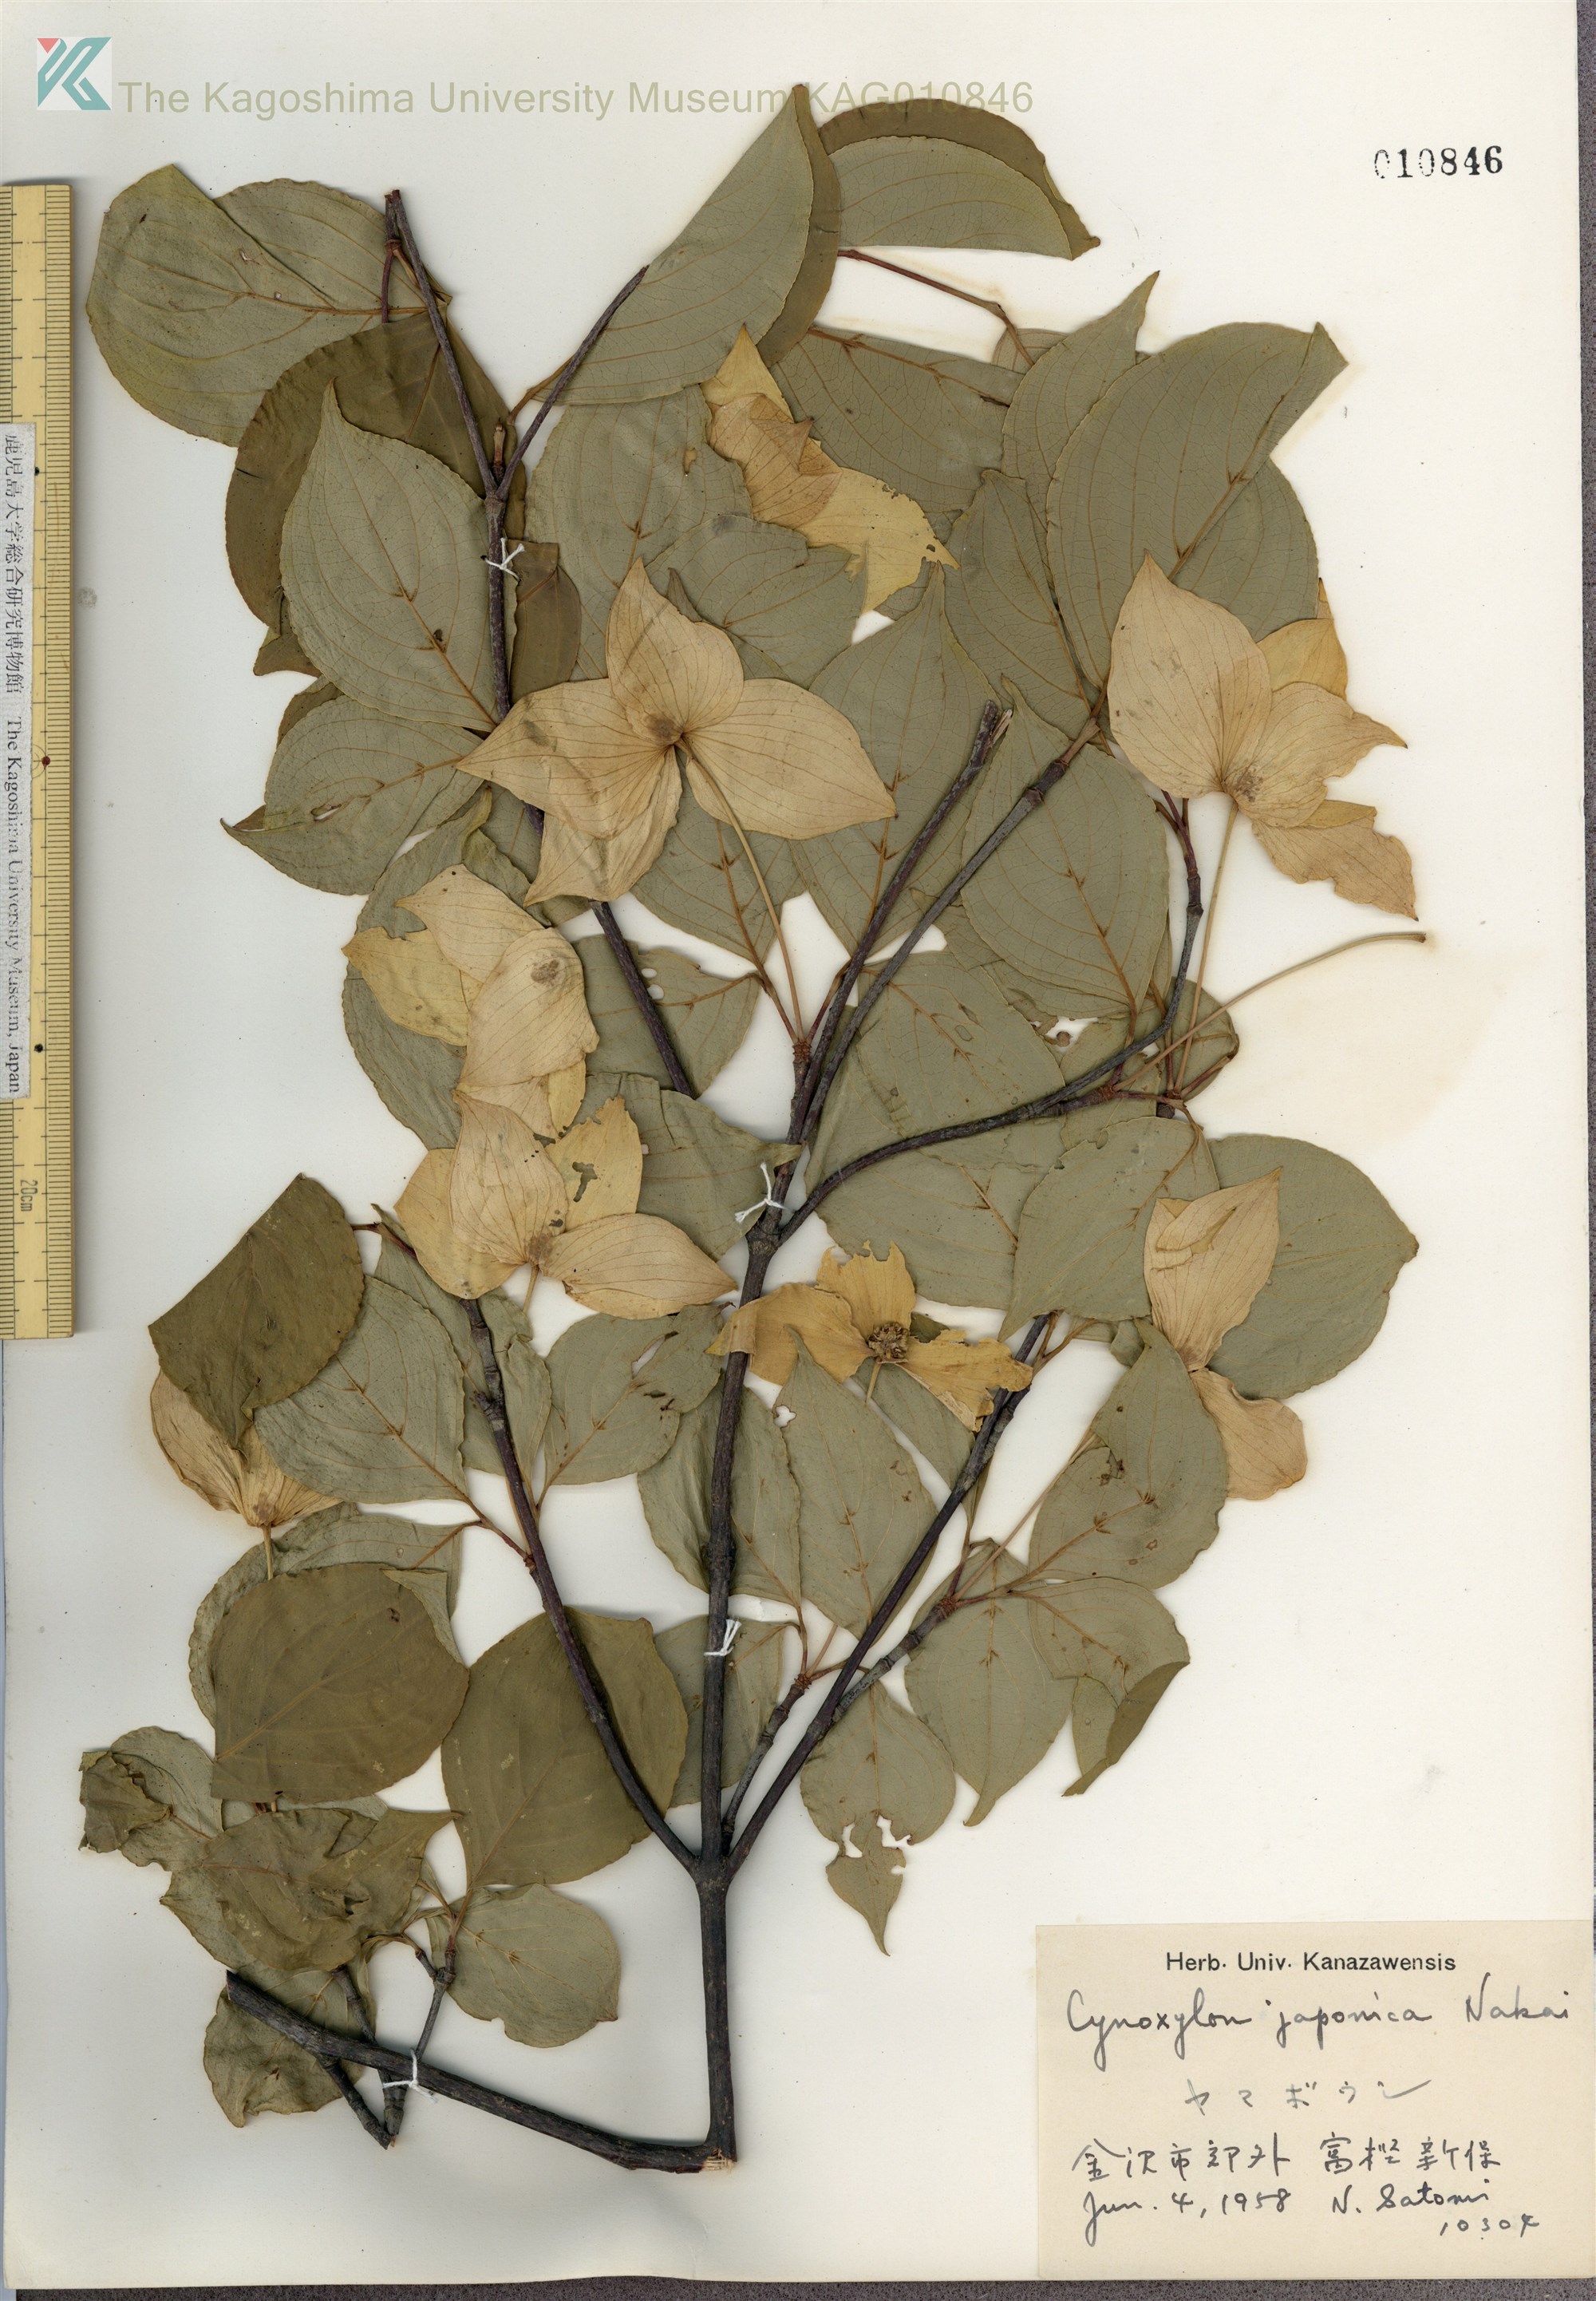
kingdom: Plantae
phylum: Tracheophyta
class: Magnoliopsida
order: Cornales
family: Cornaceae
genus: Cornus
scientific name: Cornus kousa
